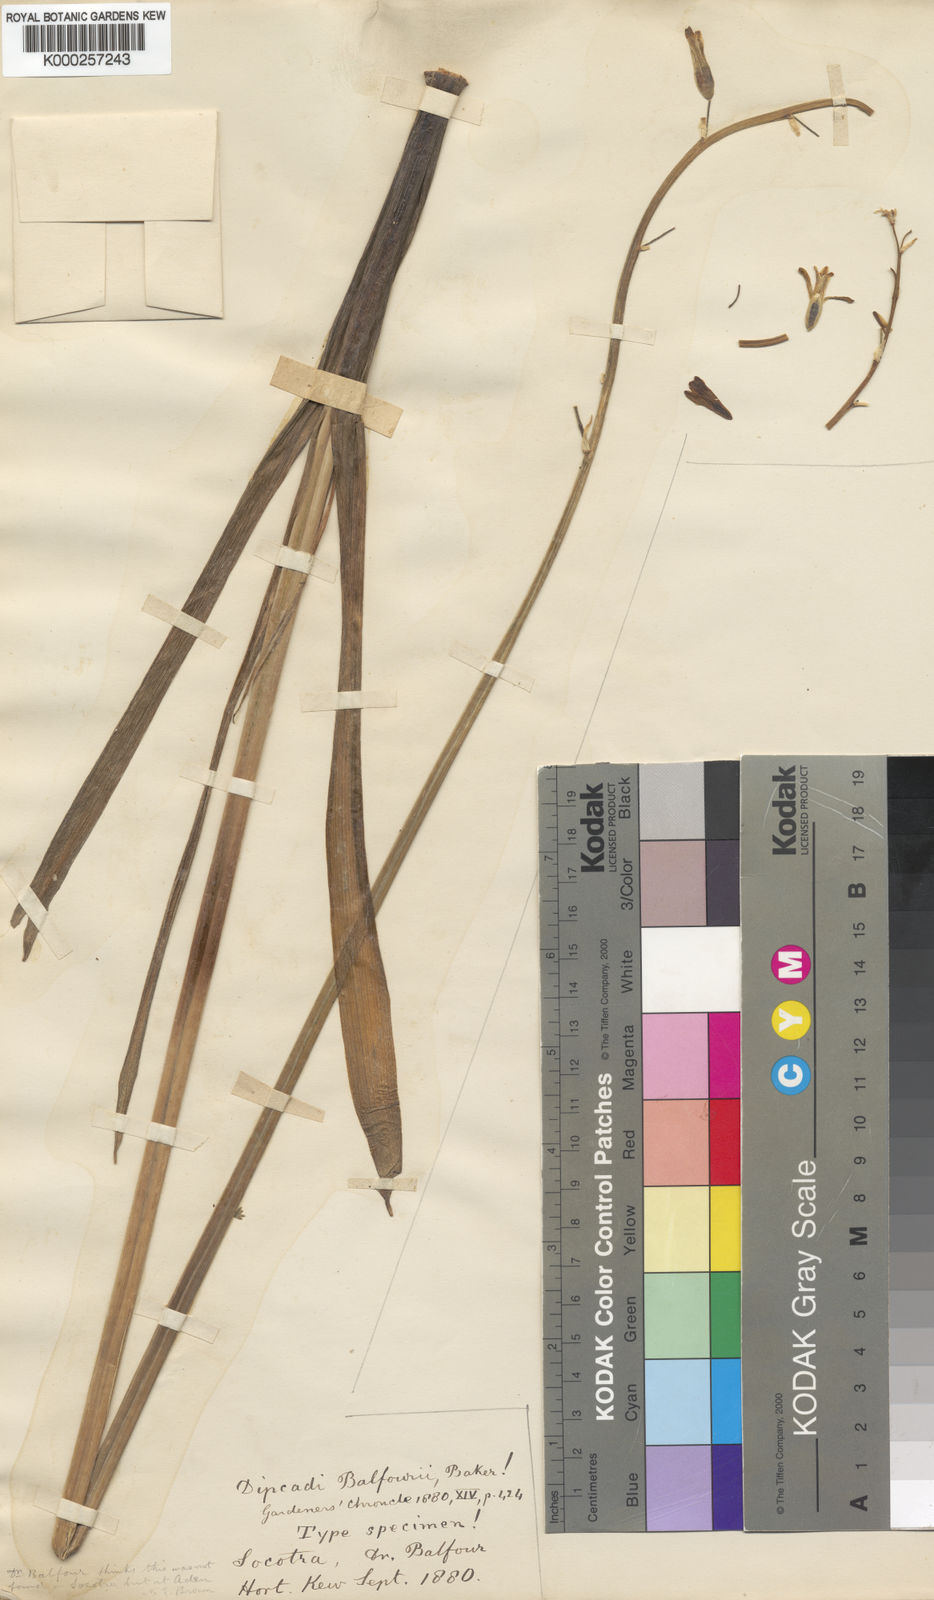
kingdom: Plantae
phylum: Tracheophyta
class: Liliopsida
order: Asparagales
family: Asparagaceae
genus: Dipcadi
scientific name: Dipcadi balfourii
